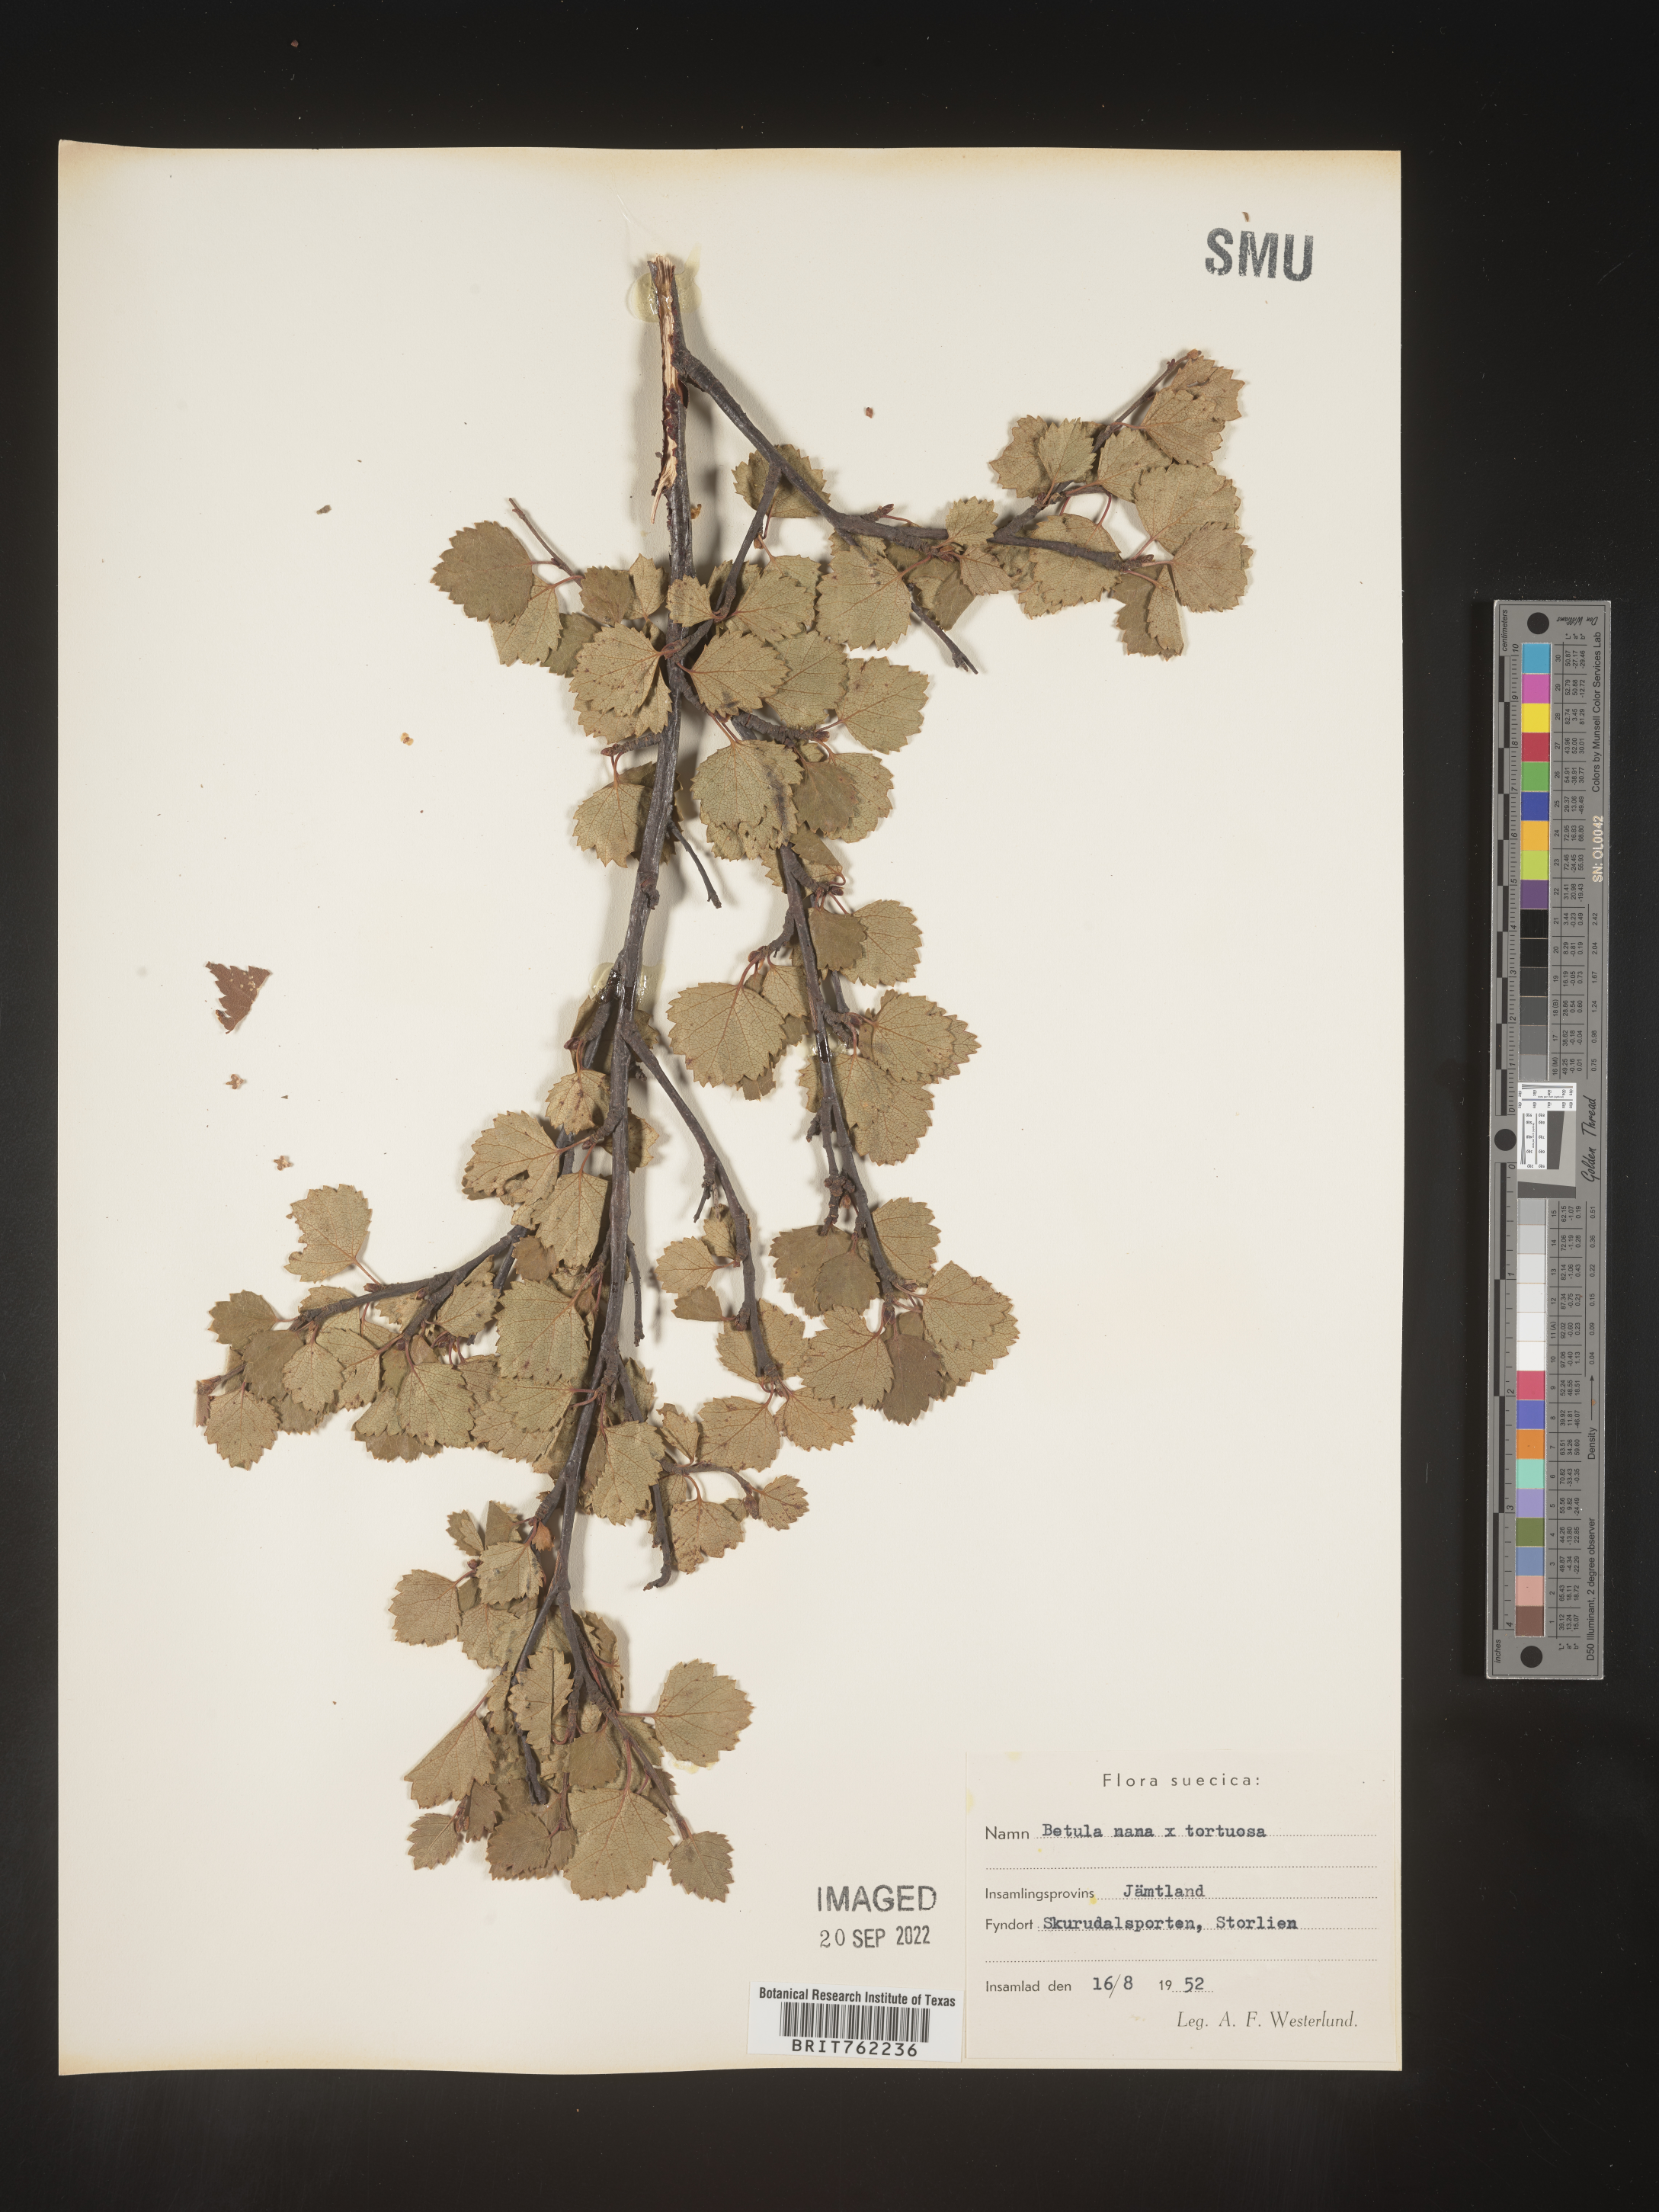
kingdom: Plantae
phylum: Tracheophyta
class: Magnoliopsida
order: Fagales
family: Betulaceae
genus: Betula
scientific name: Betula
